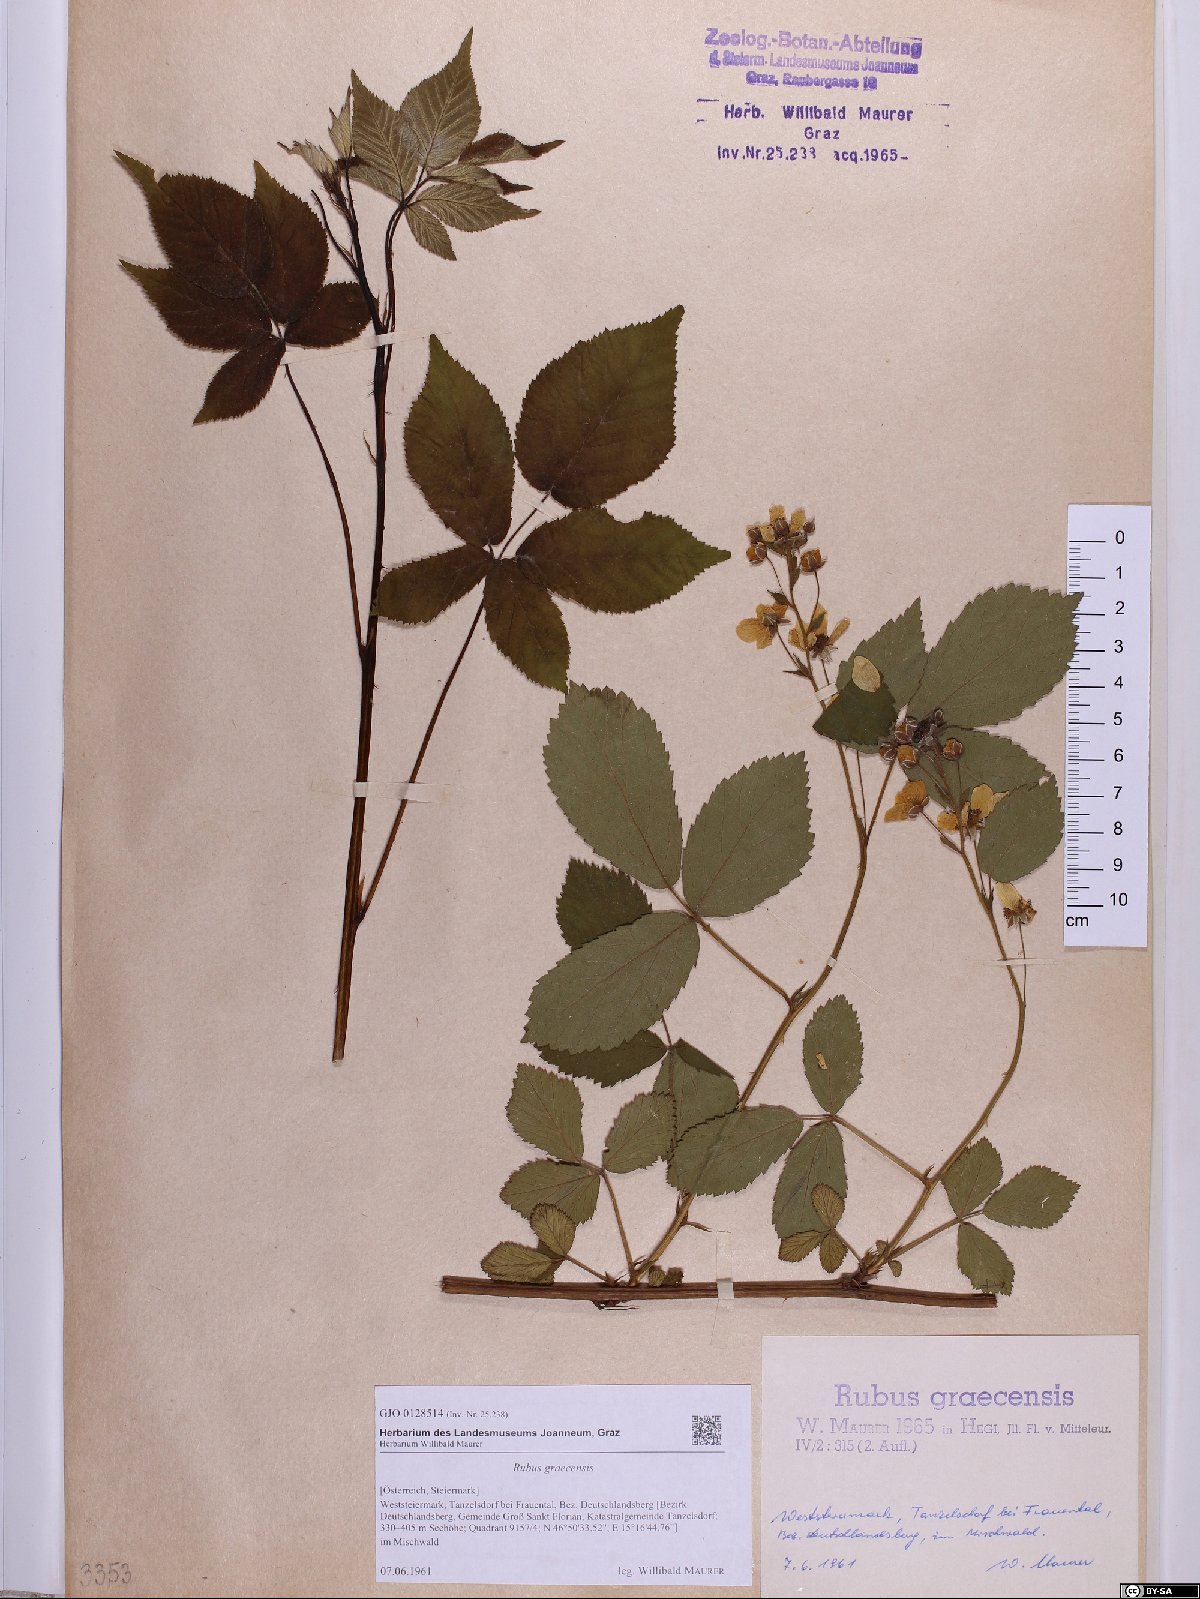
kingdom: Plantae
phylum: Tracheophyta
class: Magnoliopsida
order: Rosales
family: Rosaceae
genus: Rubus
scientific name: Rubus graecensis
